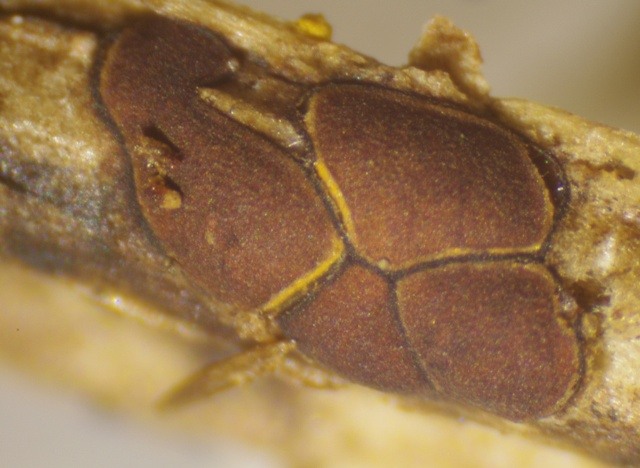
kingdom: Protozoa
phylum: Mycetozoa
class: Myxomycetes
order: Trichiales
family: Trichiaceae
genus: Perichaena
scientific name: Perichaena depressa
